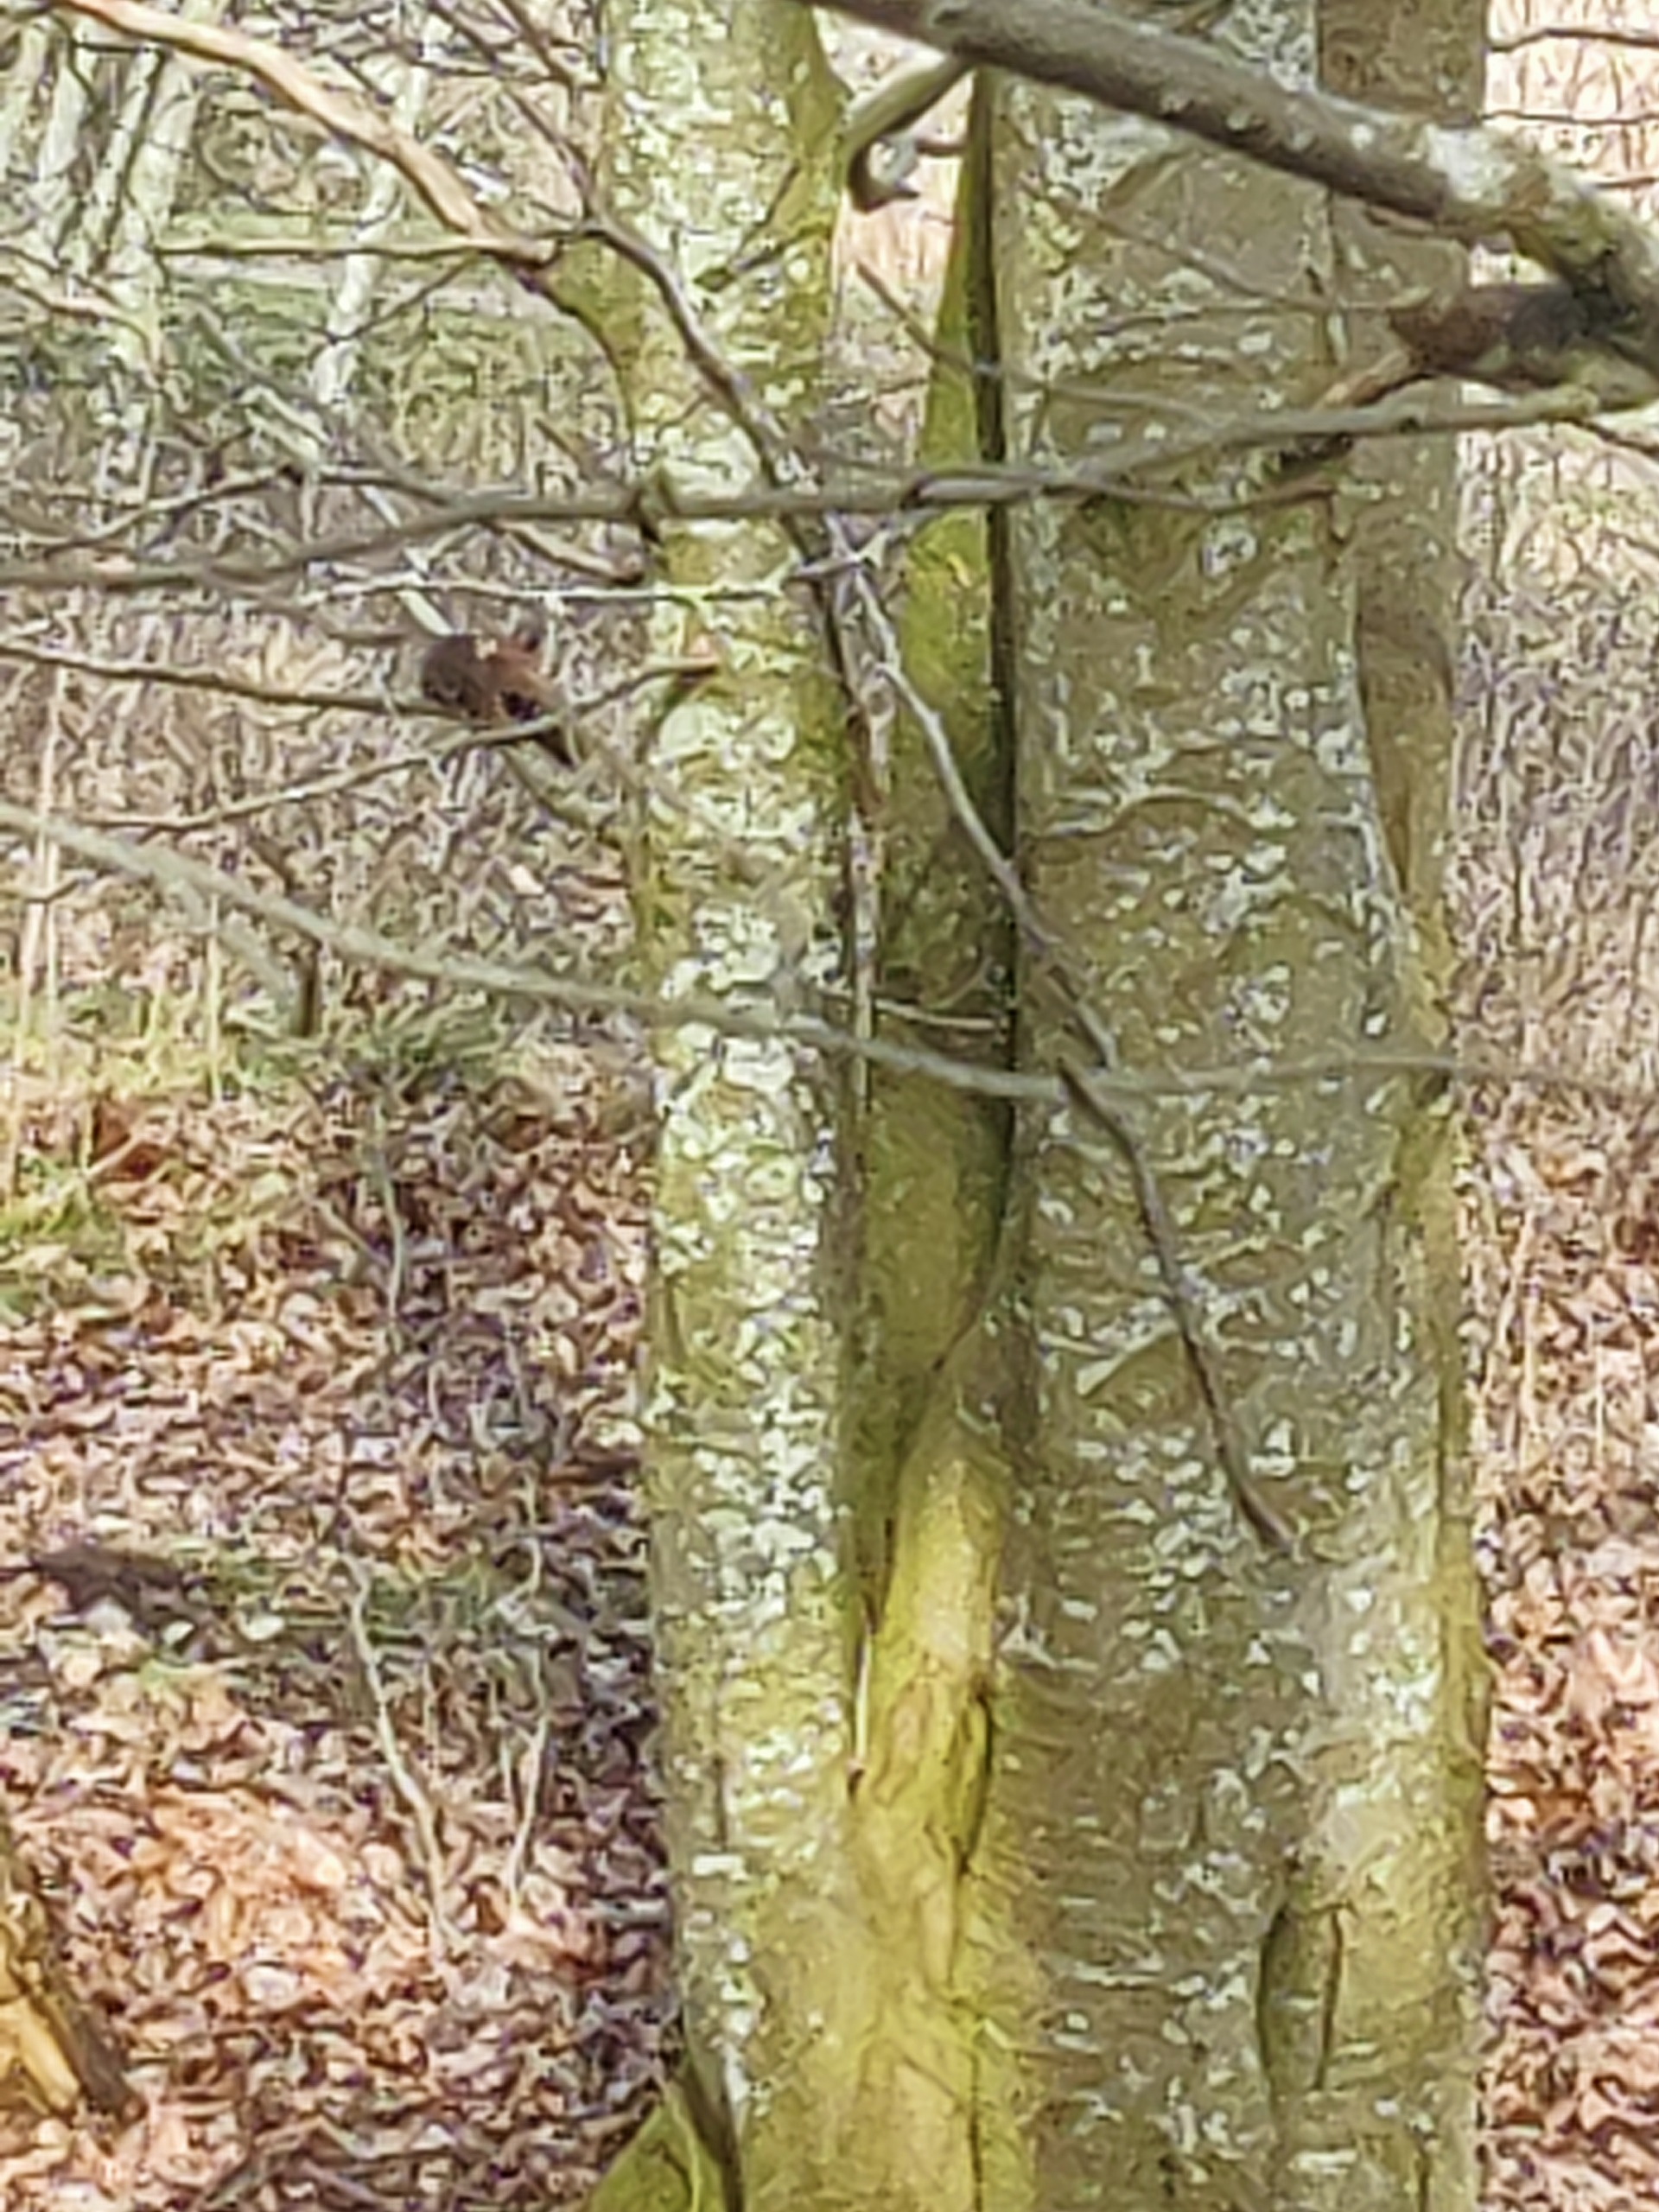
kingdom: Animalia
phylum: Chordata
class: Mammalia
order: Rodentia
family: Sciuridae
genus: Sciurus
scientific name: Sciurus vulgaris
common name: Egern
